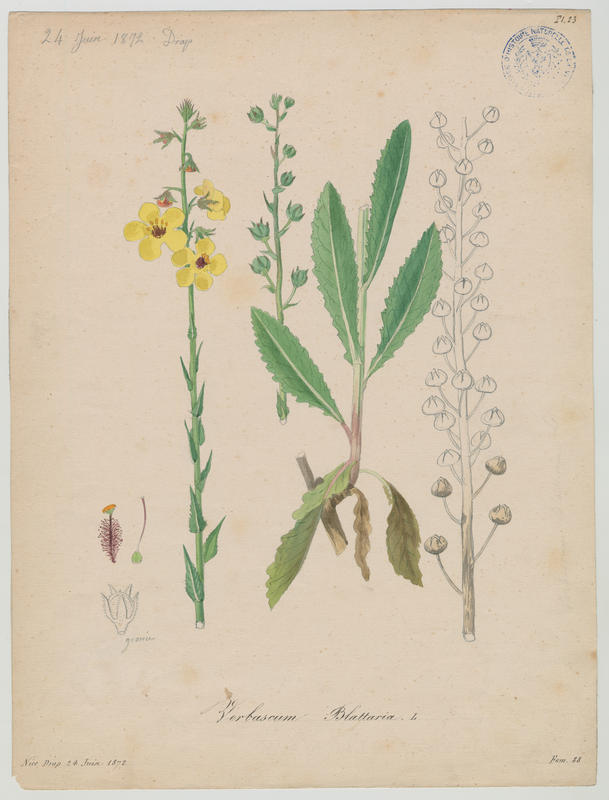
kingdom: Plantae
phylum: Tracheophyta
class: Magnoliopsida
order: Lamiales
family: Scrophulariaceae
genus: Verbascum
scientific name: Verbascum blattaria
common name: Moth mullein
